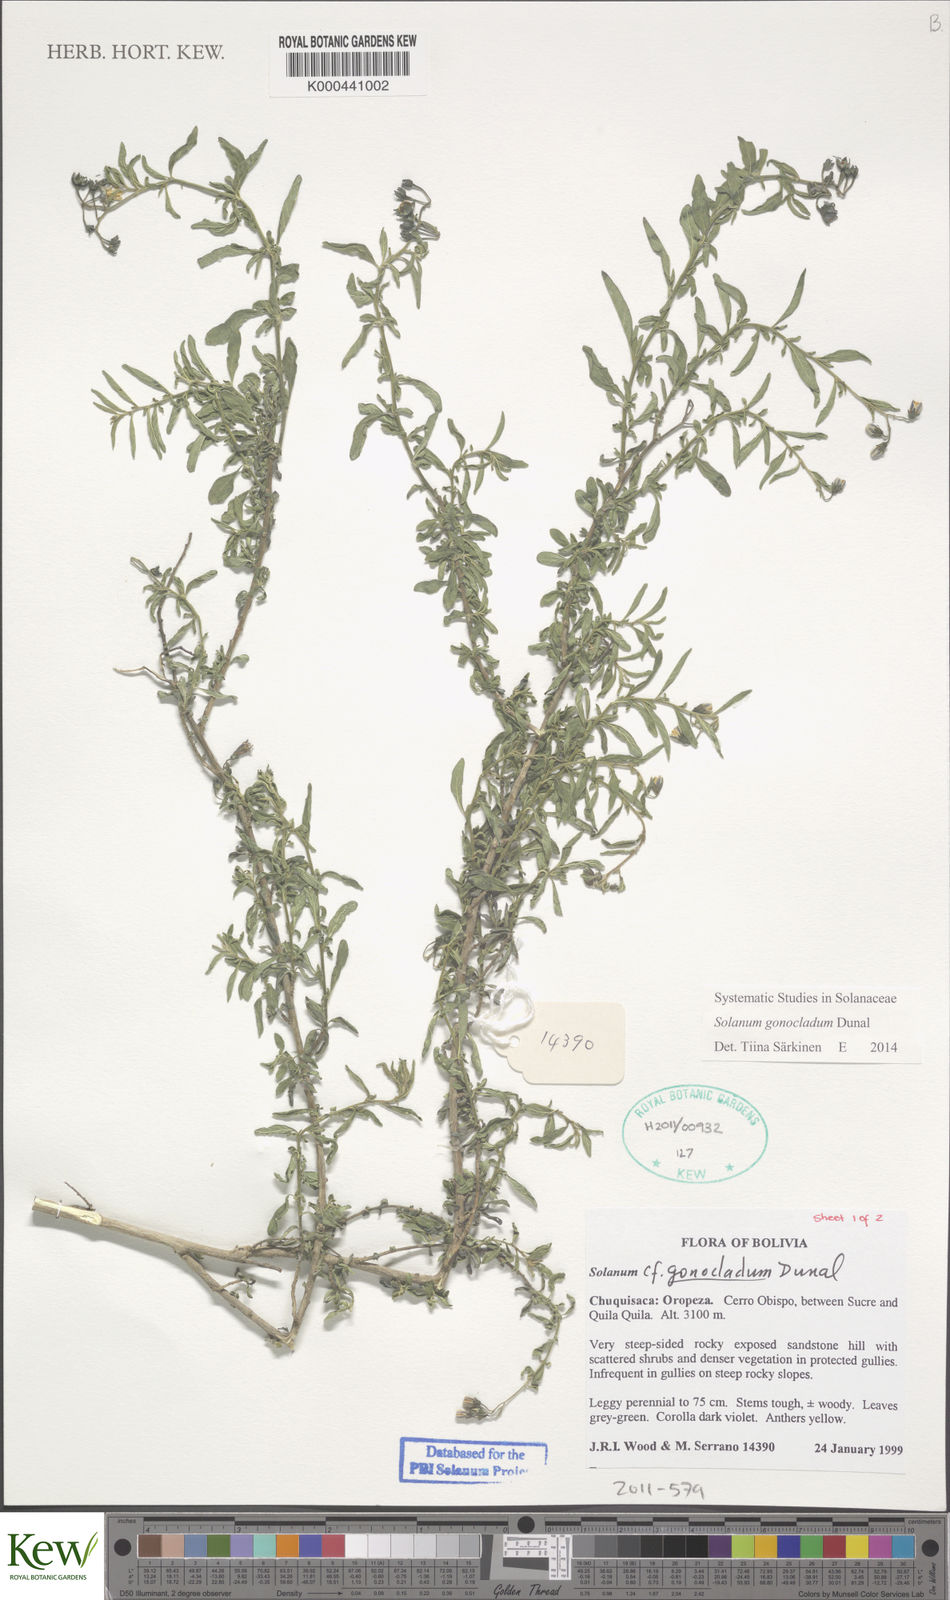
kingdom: Plantae
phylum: Tracheophyta
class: Magnoliopsida
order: Solanales
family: Solanaceae
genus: Solanum
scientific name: Solanum gonocladum
